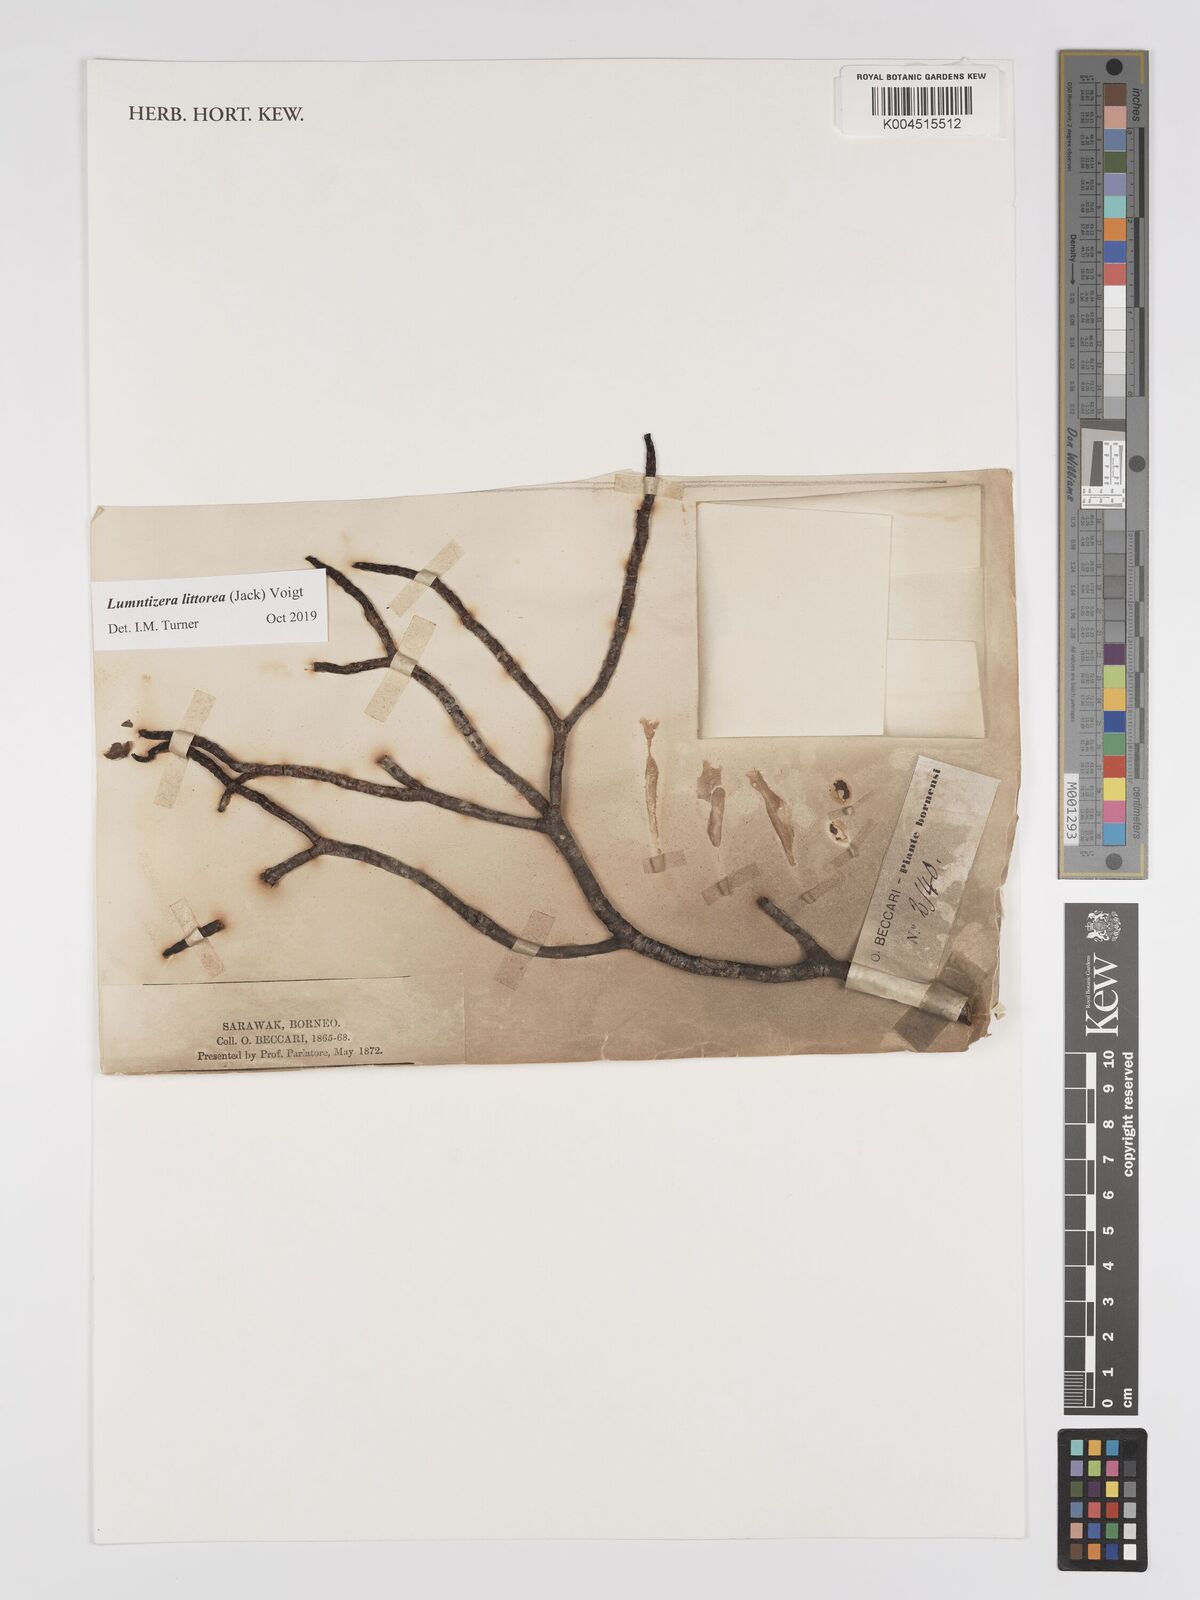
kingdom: Plantae
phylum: Tracheophyta
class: Magnoliopsida
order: Myrtales
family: Combretaceae
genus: Lumnitzera
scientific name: Lumnitzera littorea
